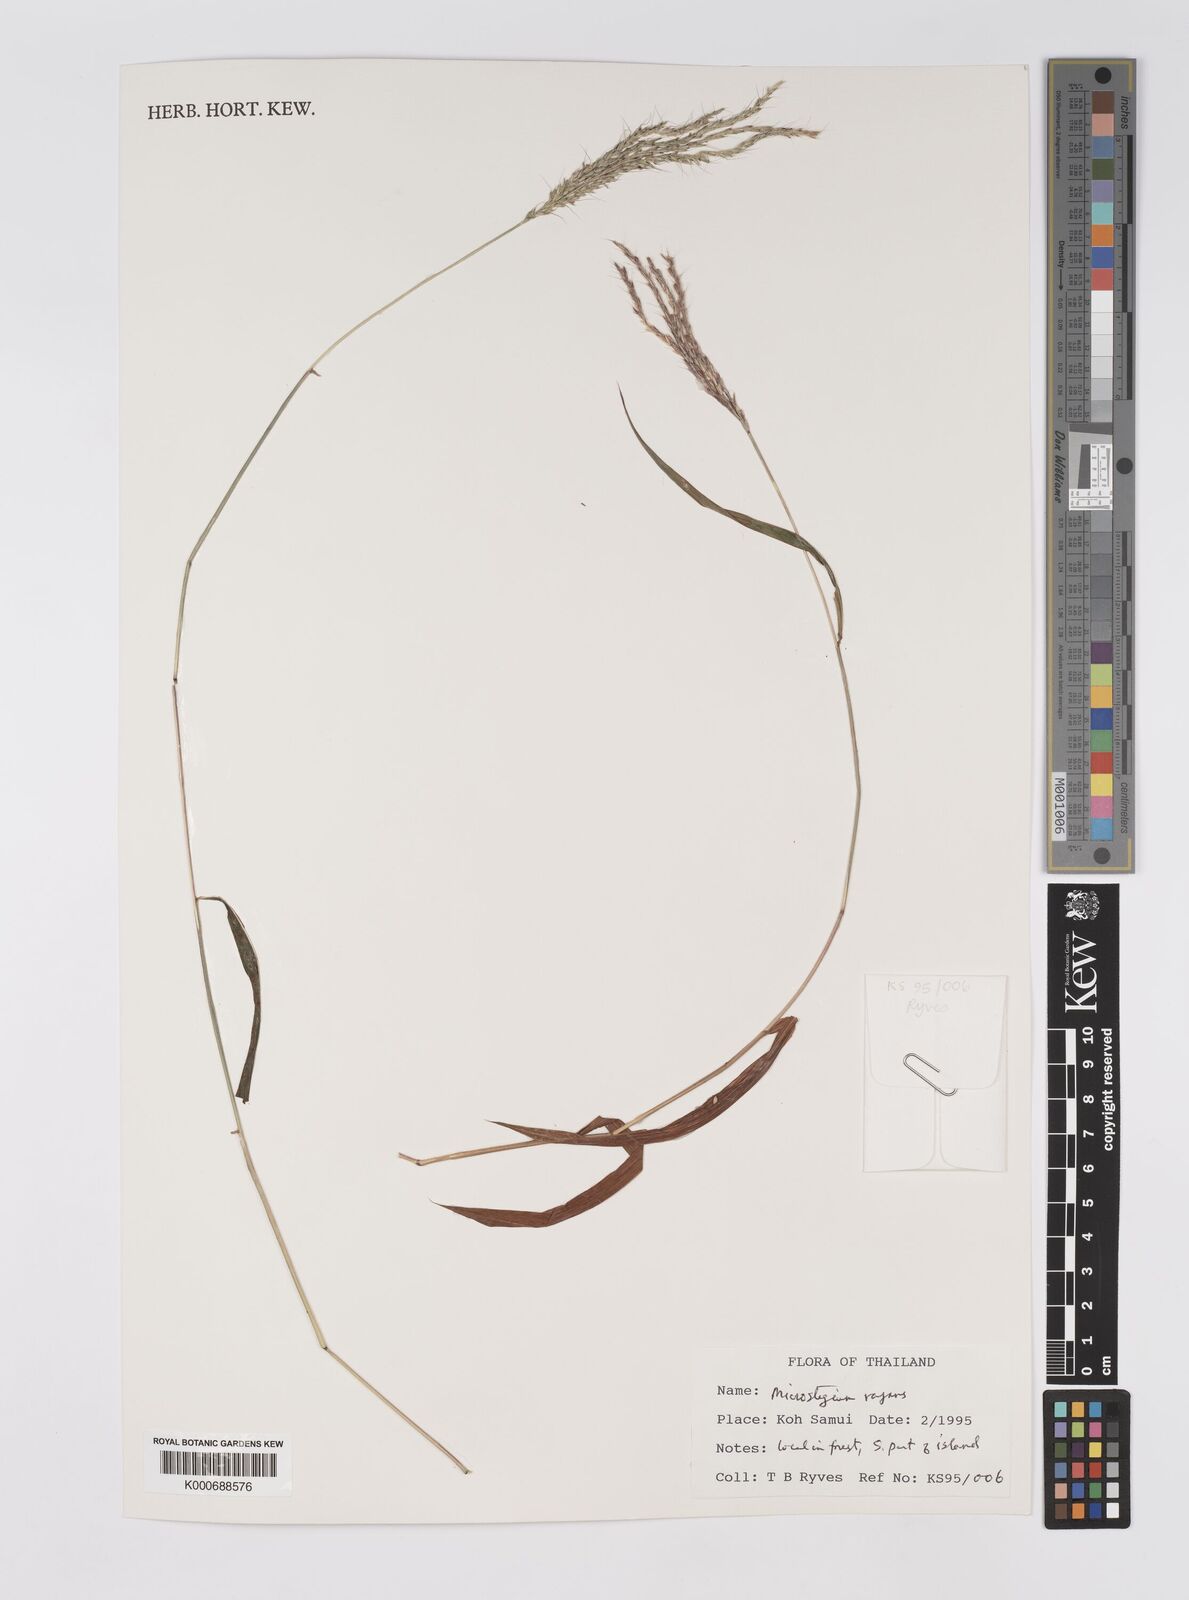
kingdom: Plantae
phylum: Tracheophyta
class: Liliopsida
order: Poales
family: Poaceae
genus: Microstegium
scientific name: Microstegium fasciculatum
